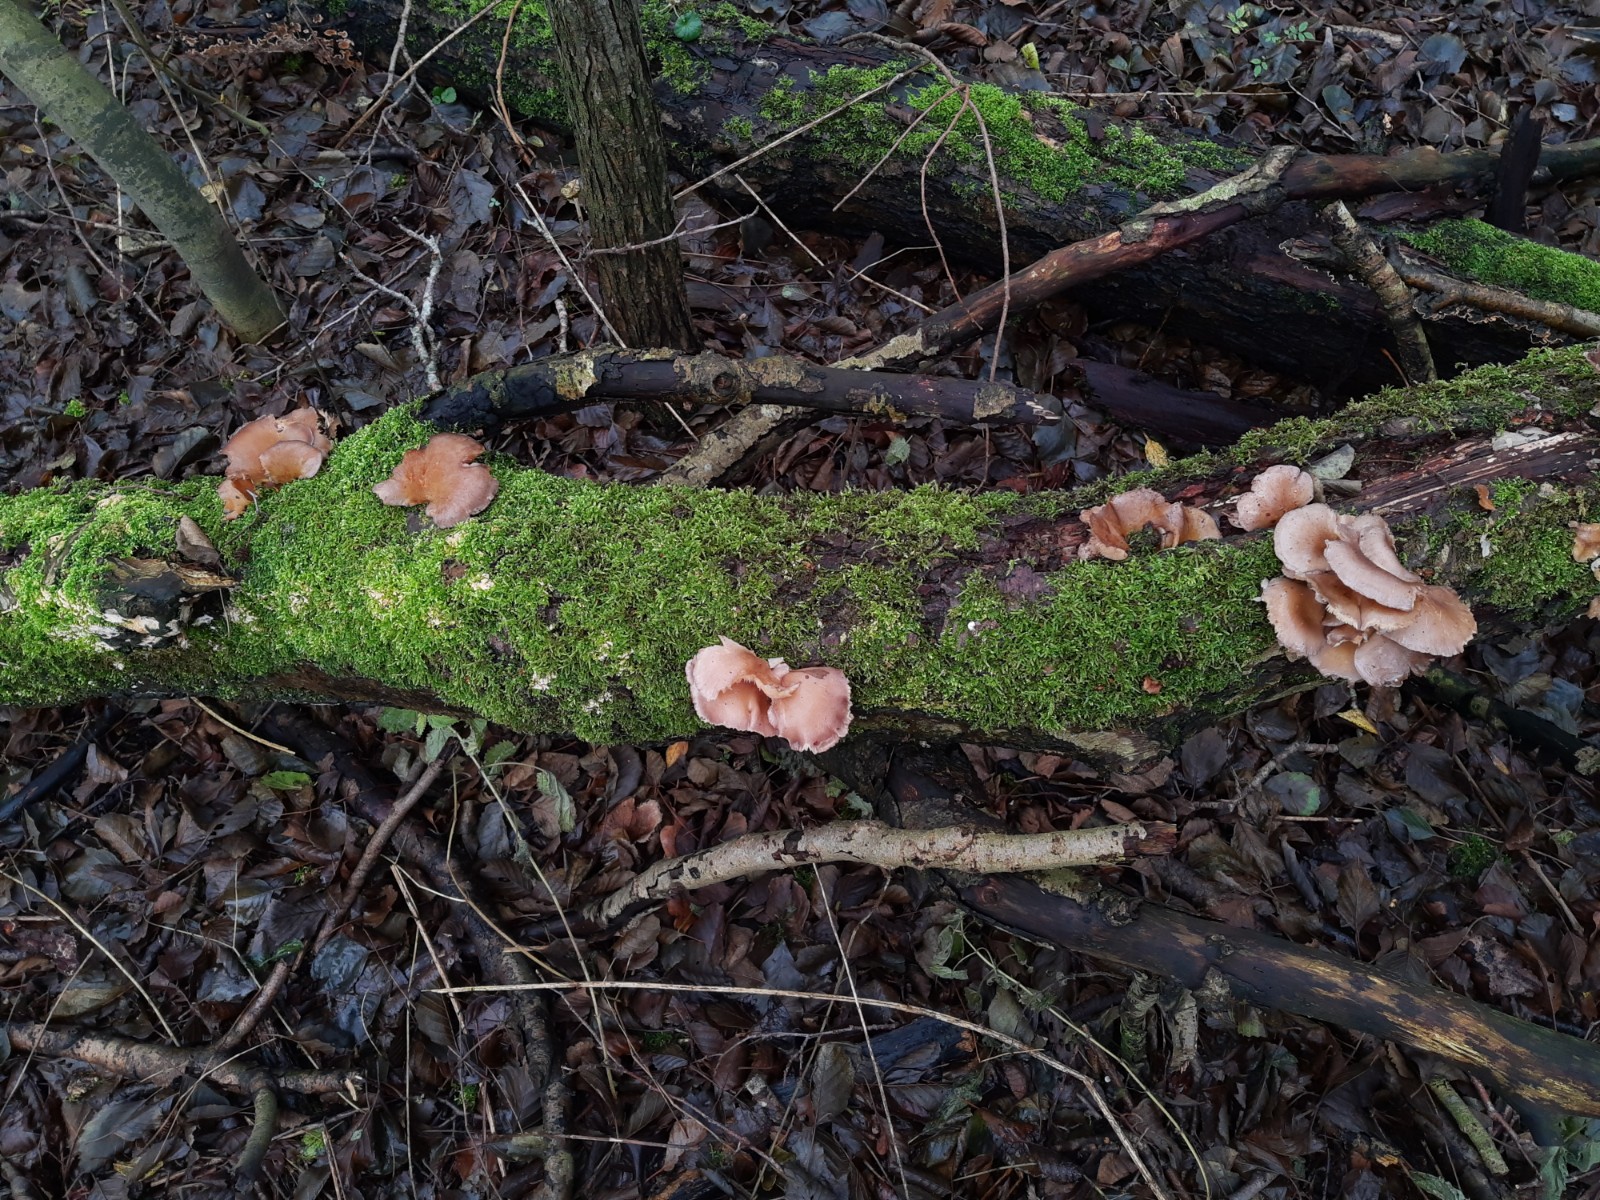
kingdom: Fungi
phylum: Basidiomycota
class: Agaricomycetes
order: Agaricales
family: Sarcomyxaceae
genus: Sarcomyxa
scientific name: Sarcomyxa serotina
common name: gummihat
